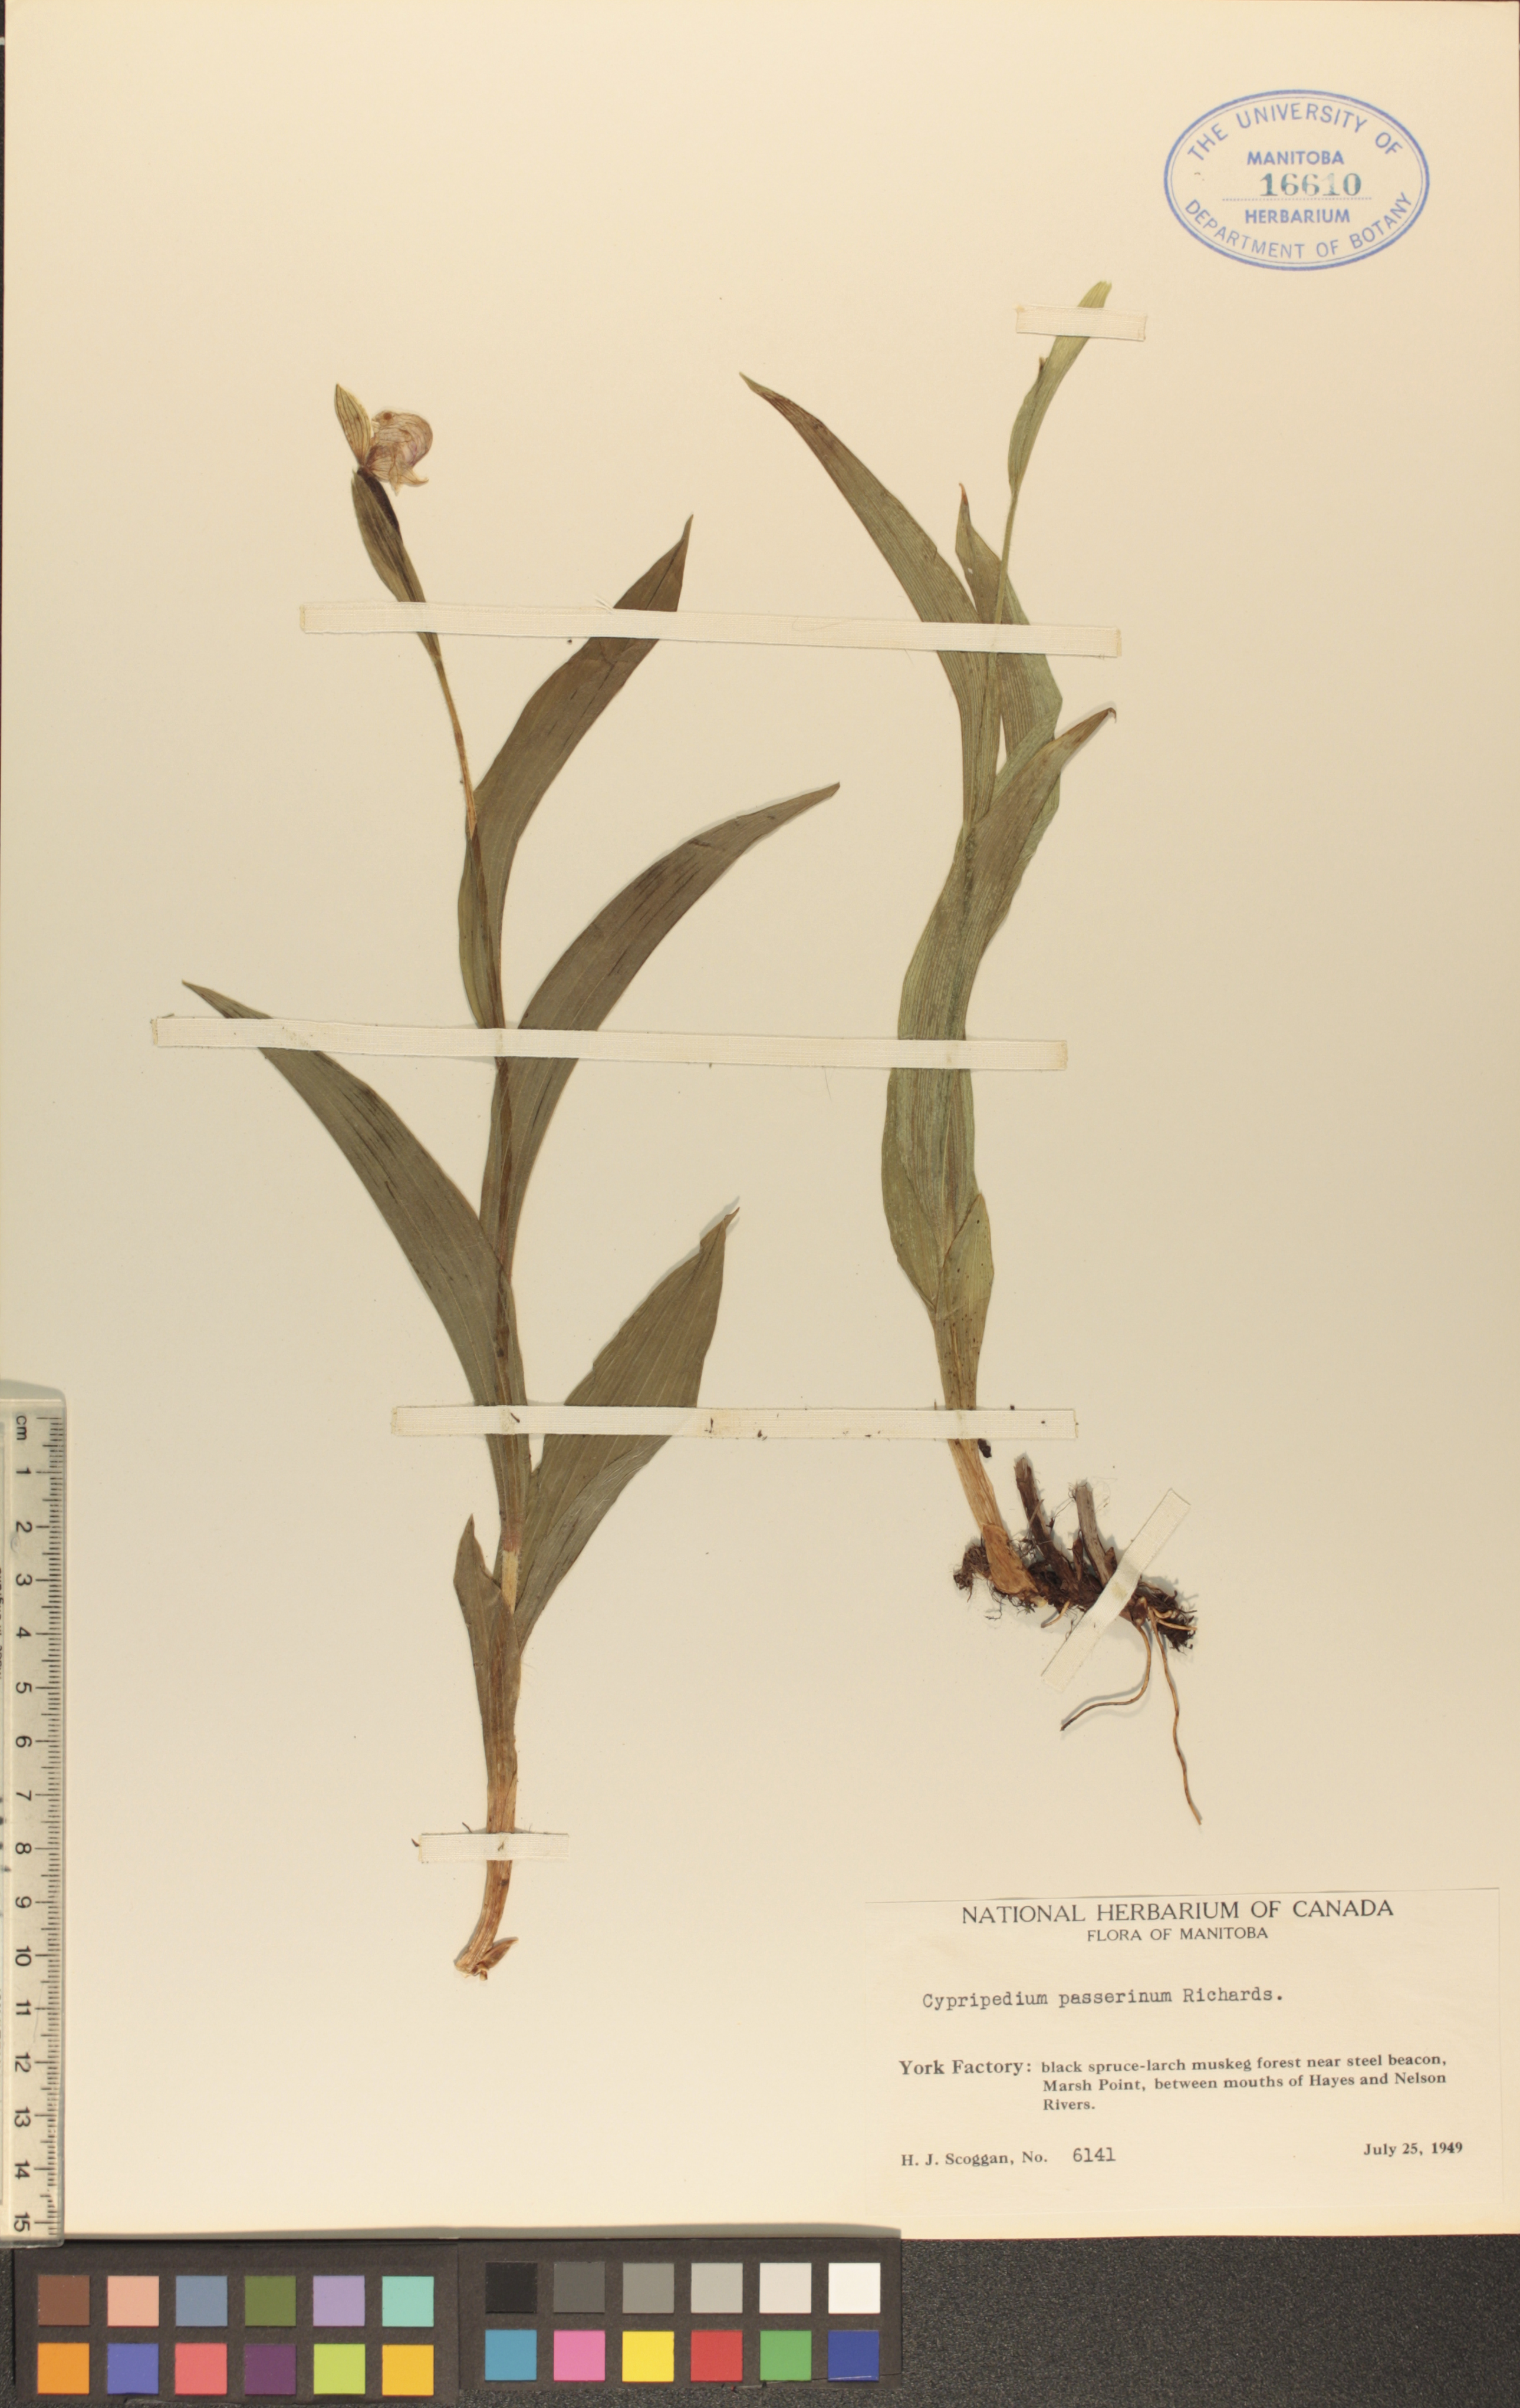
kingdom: Plantae
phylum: Tracheophyta
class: Liliopsida
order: Asparagales
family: Orchidaceae
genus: Cypripedium
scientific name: Cypripedium passerinum
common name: Sparrow's-egg lady's-slipper
